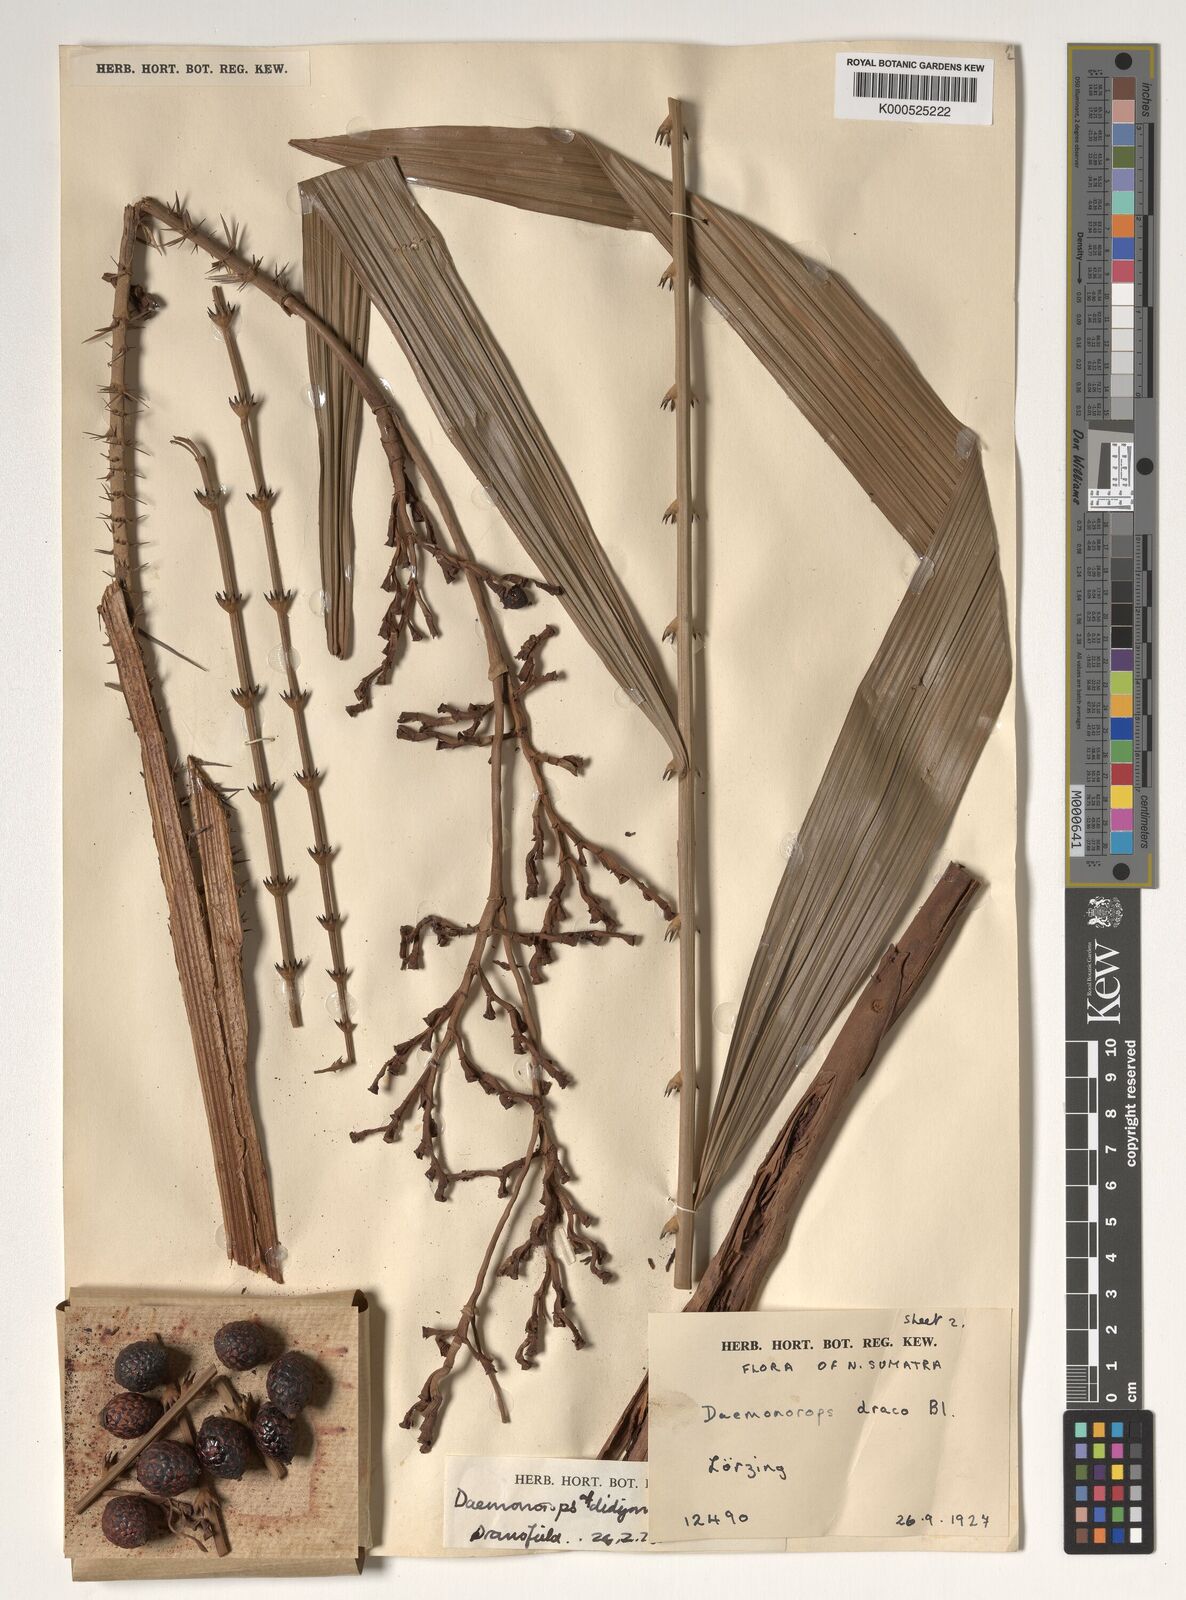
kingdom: Plantae
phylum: Tracheophyta
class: Liliopsida
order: Arecales
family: Arecaceae
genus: Calamus
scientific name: Calamus gracilipes
